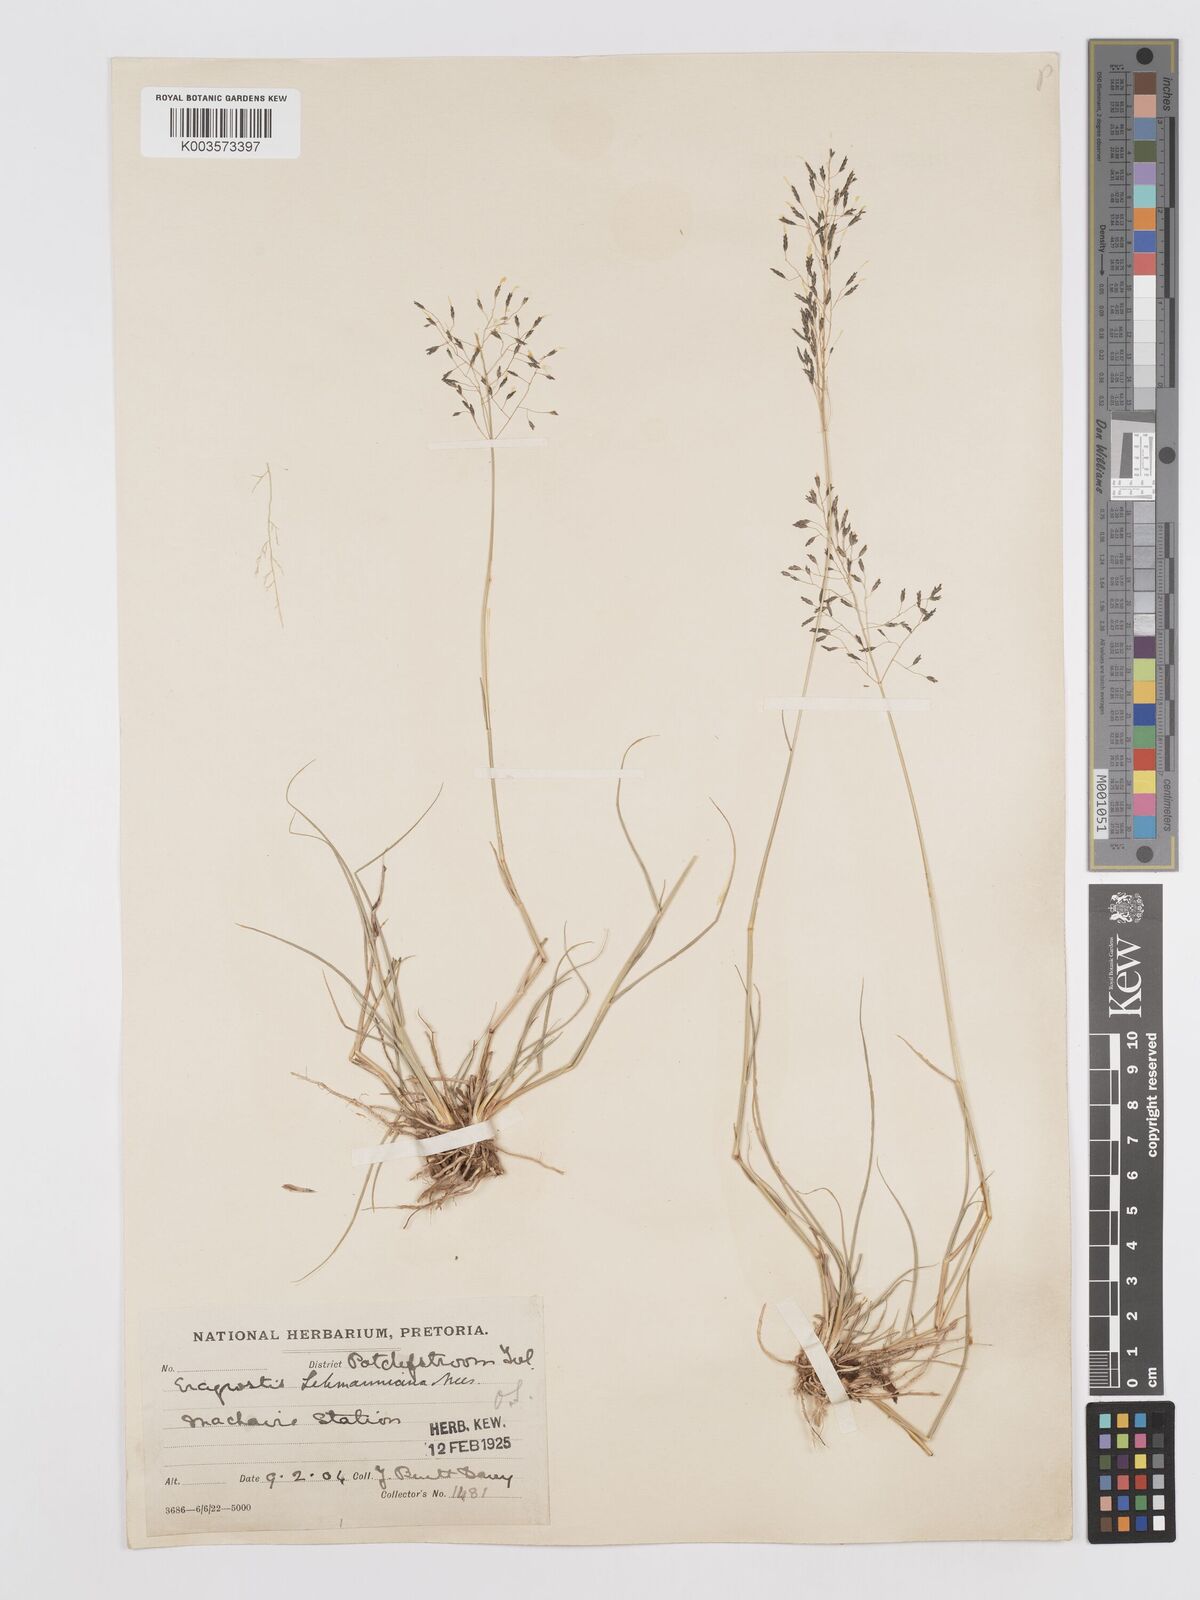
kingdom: Plantae
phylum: Tracheophyta
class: Liliopsida
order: Poales
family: Poaceae
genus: Eragrostis
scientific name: Eragrostis lehmanniana
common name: Lehmann lovegrass
